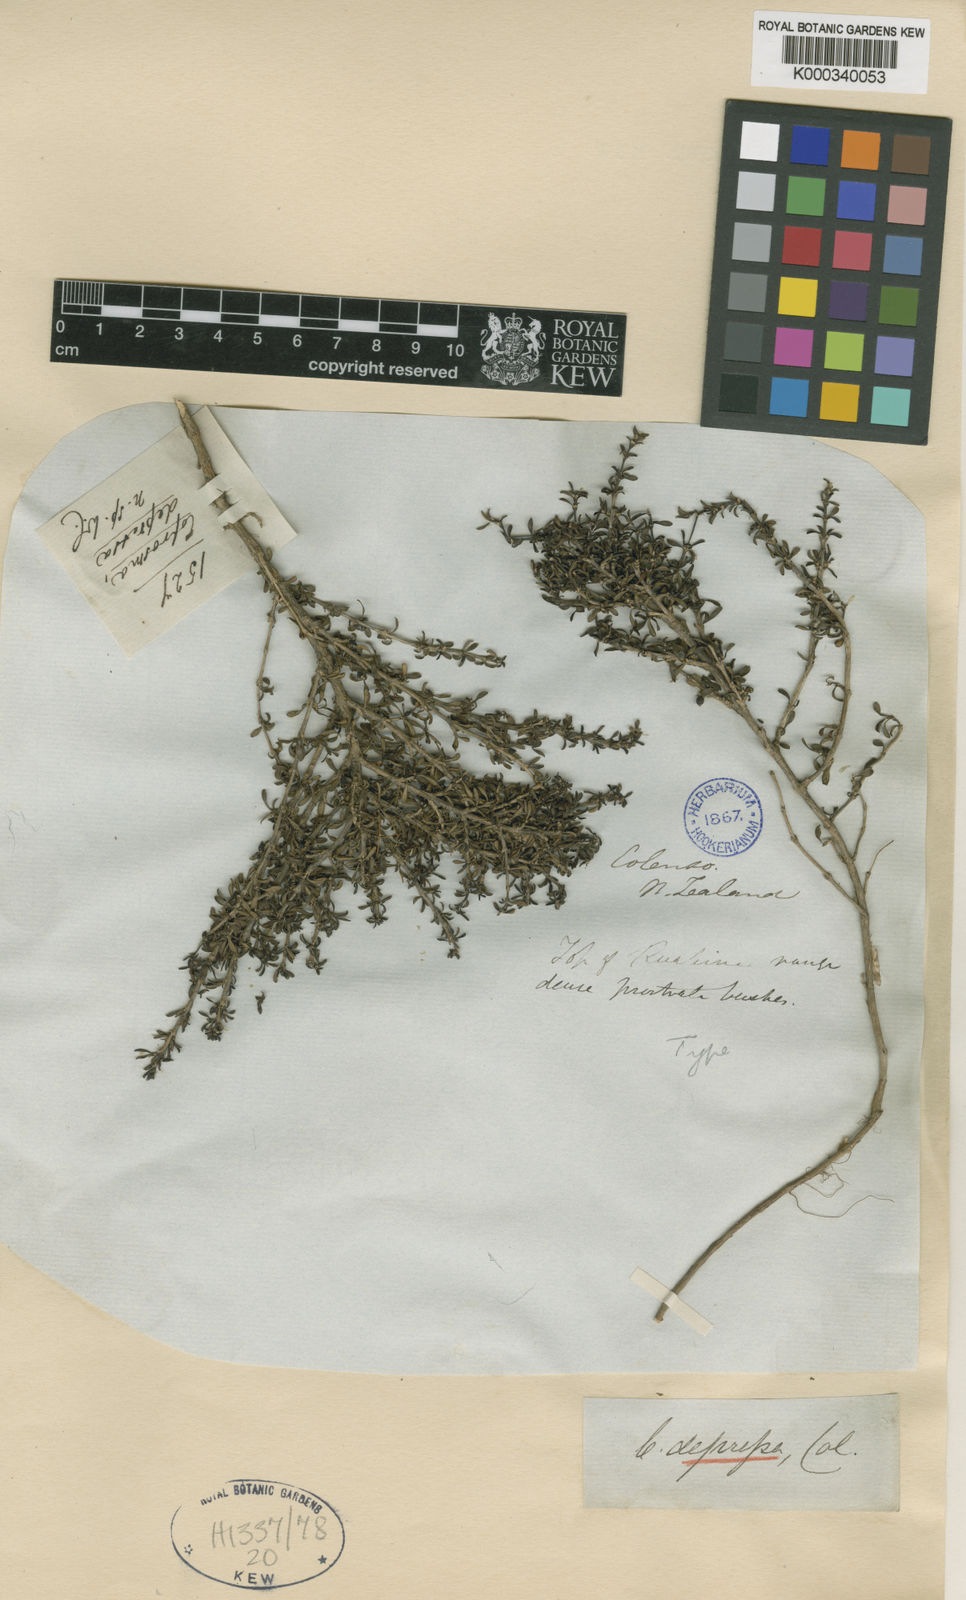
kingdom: Plantae
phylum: Tracheophyta
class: Magnoliopsida
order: Gentianales
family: Rubiaceae
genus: Coprosma
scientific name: Coprosma depressa
